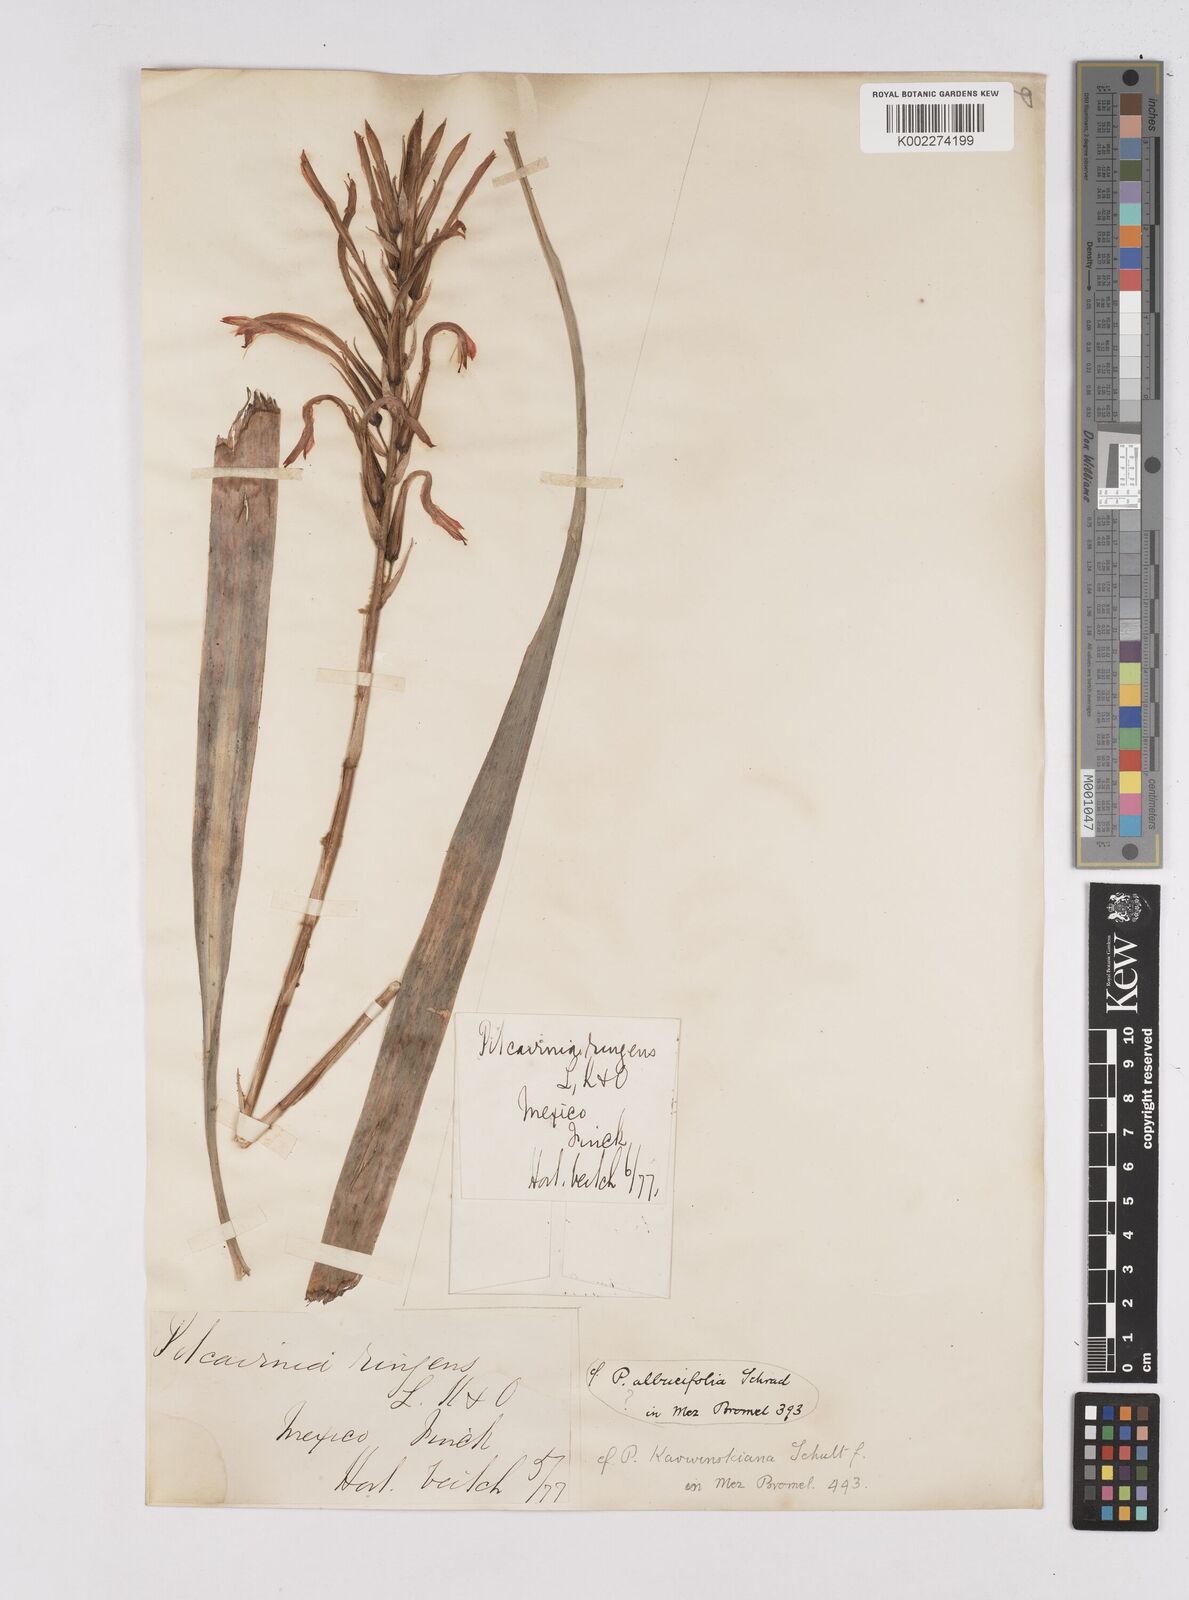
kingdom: Plantae
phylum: Tracheophyta
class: Liliopsida
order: Poales
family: Bromeliaceae
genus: Pitcairnia
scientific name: Pitcairnia ringens
